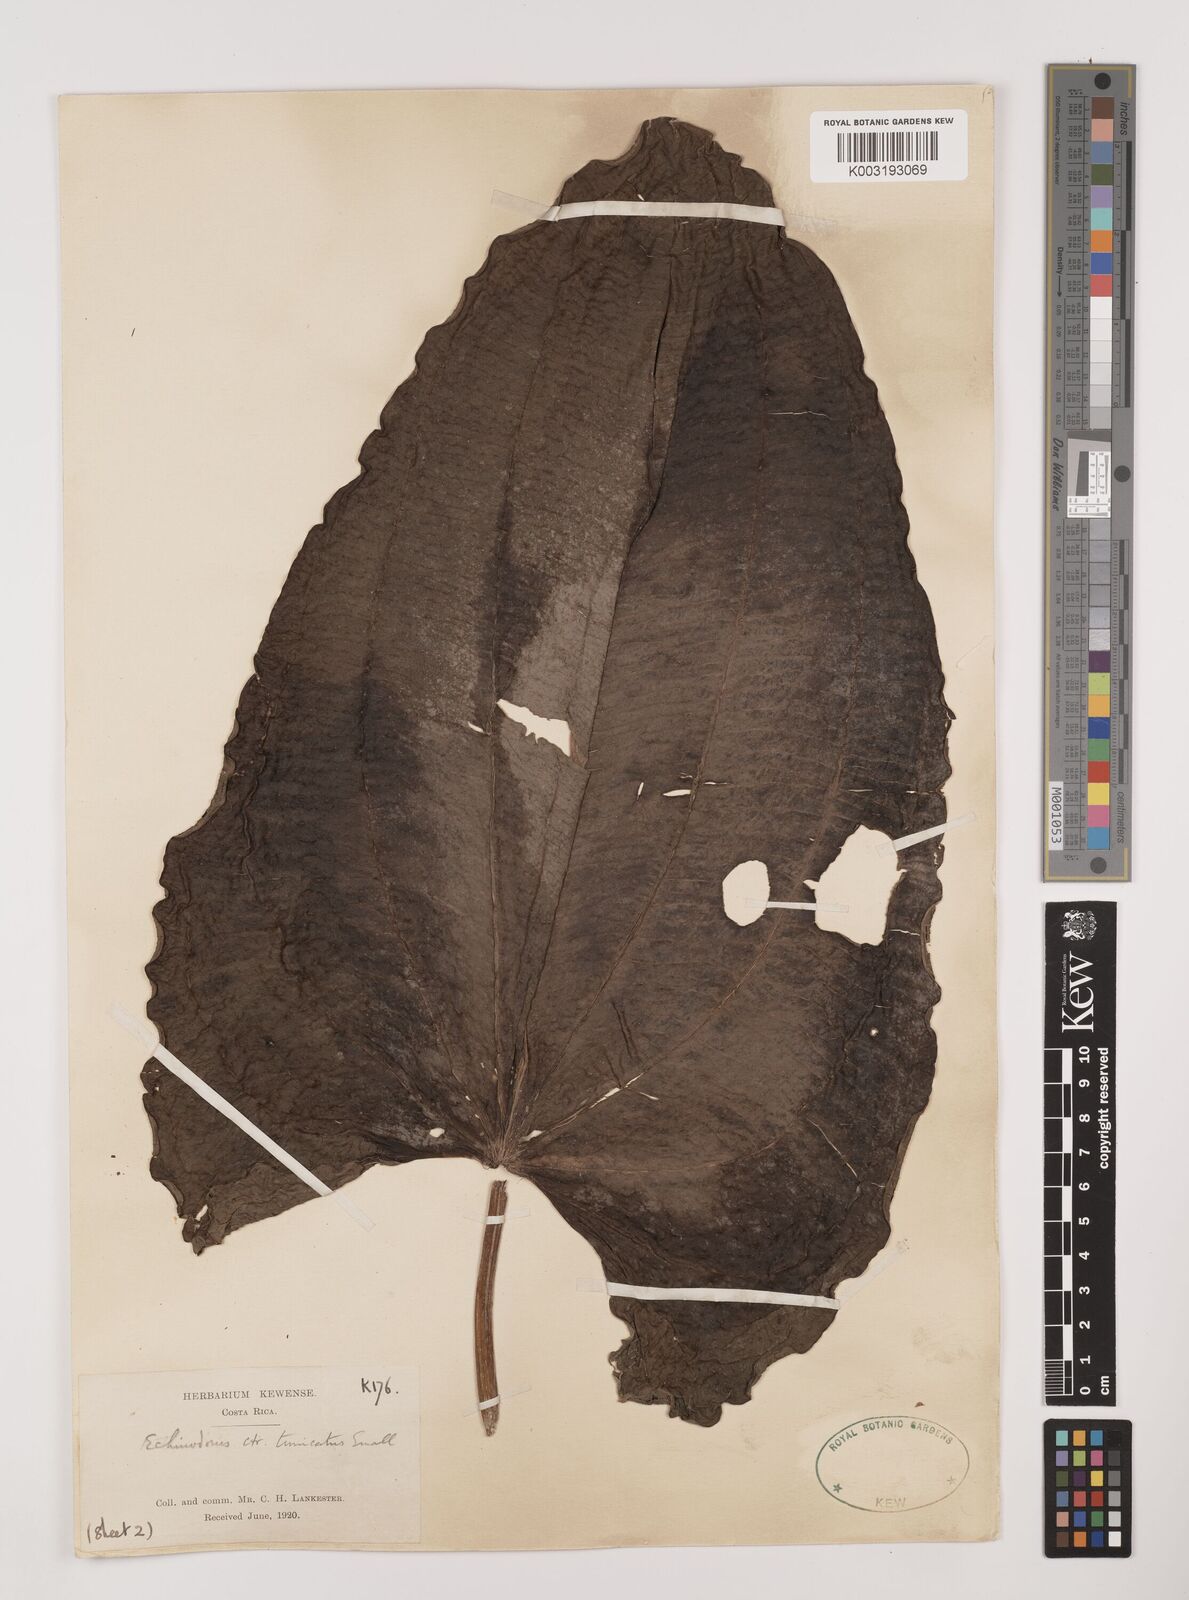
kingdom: Plantae
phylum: Tracheophyta
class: Liliopsida
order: Alismatales
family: Alismataceae
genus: Aquarius
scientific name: Aquarius tunicatus
